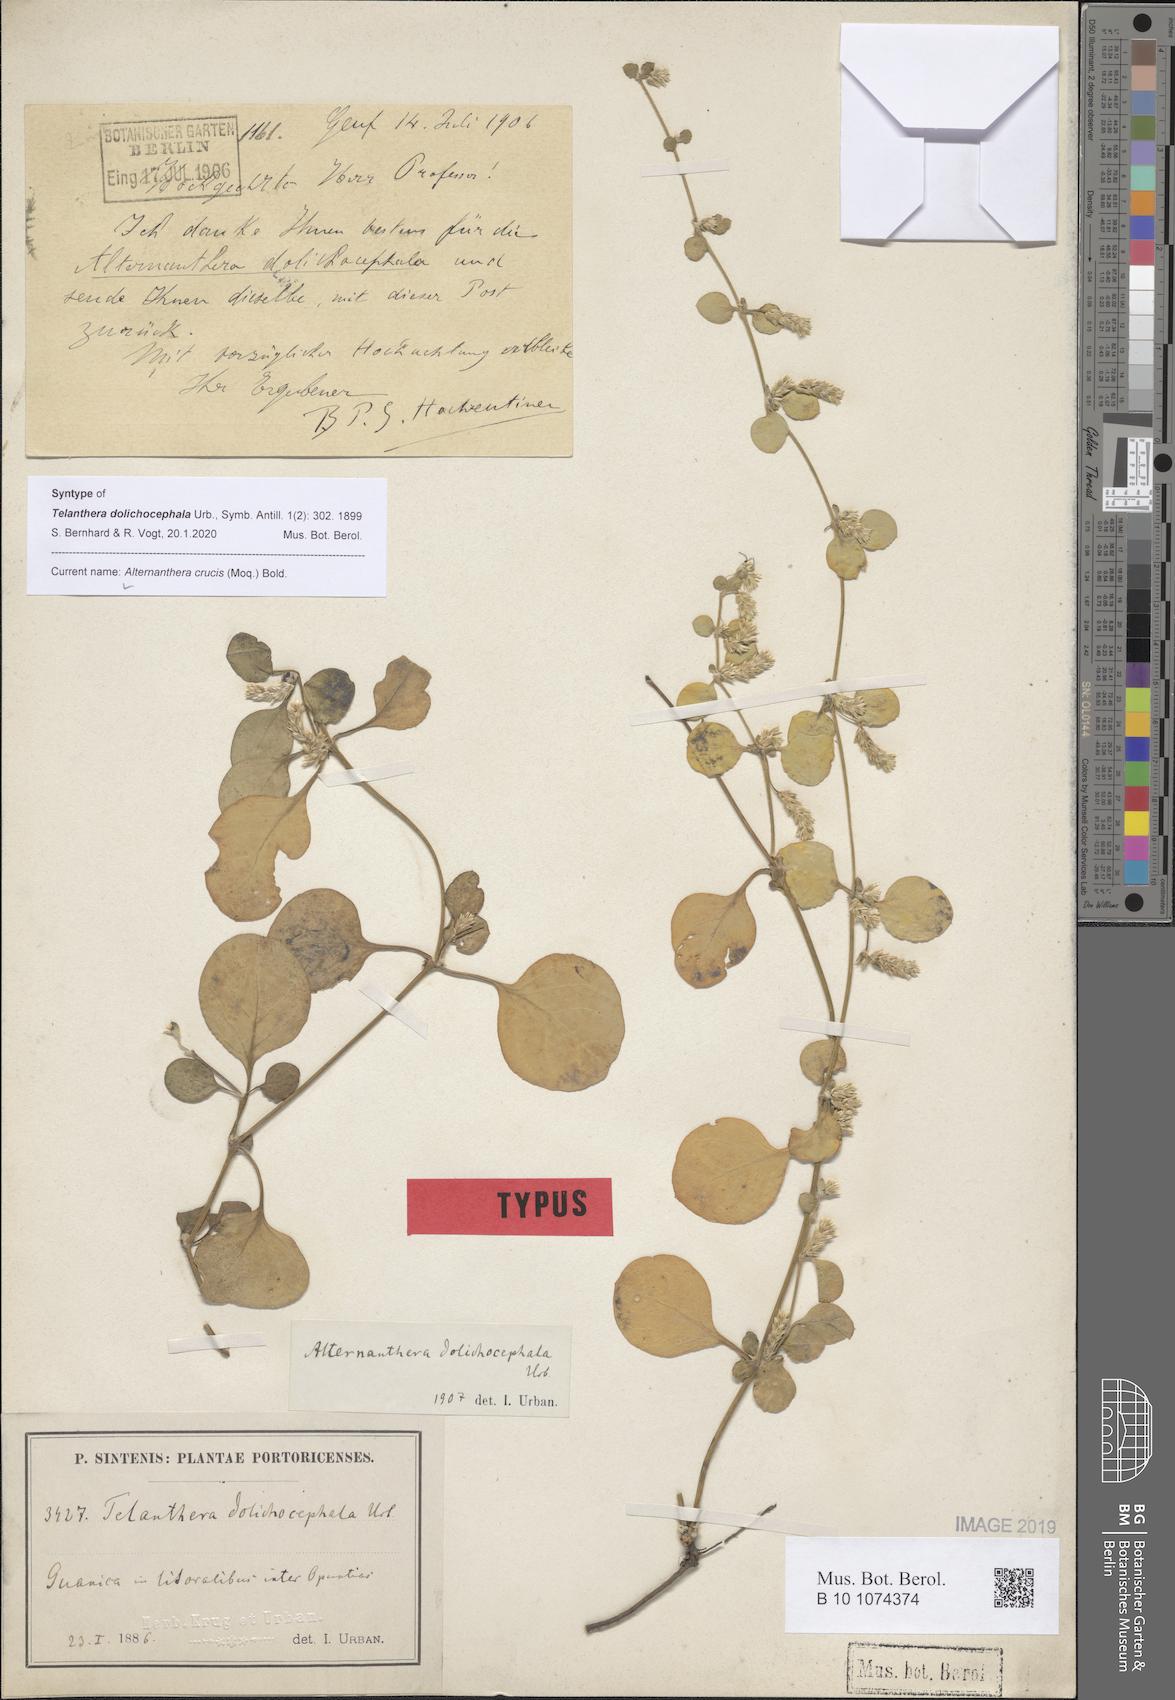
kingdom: Plantae
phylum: Tracheophyta
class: Magnoliopsida
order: Caryophyllales
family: Amaranthaceae
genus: Alternanthera
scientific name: Alternanthera crucis
